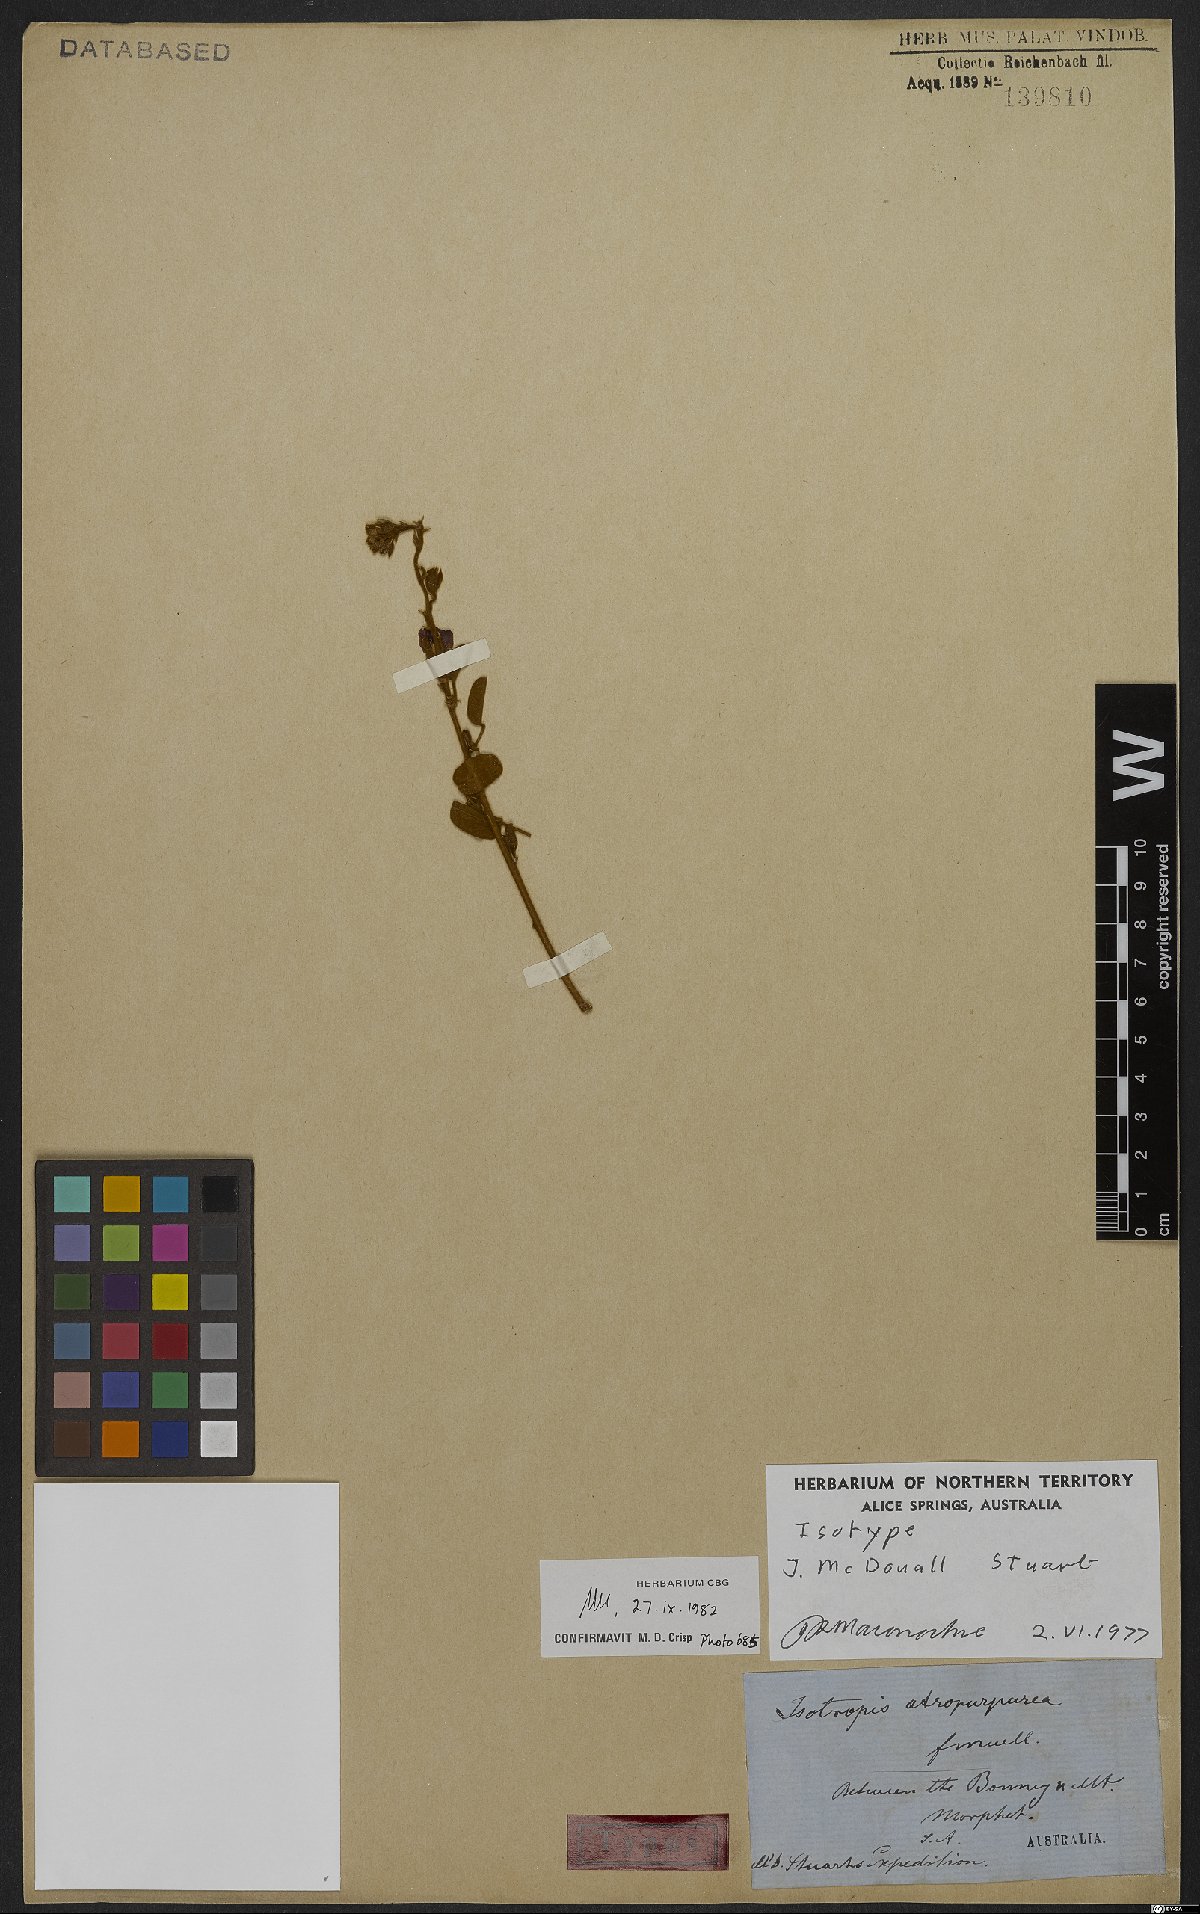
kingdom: Plantae
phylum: Tracheophyta
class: Magnoliopsida
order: Fabales
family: Fabaceae
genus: Isotropis
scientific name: Isotropis atropurpurea
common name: Poison-sage
